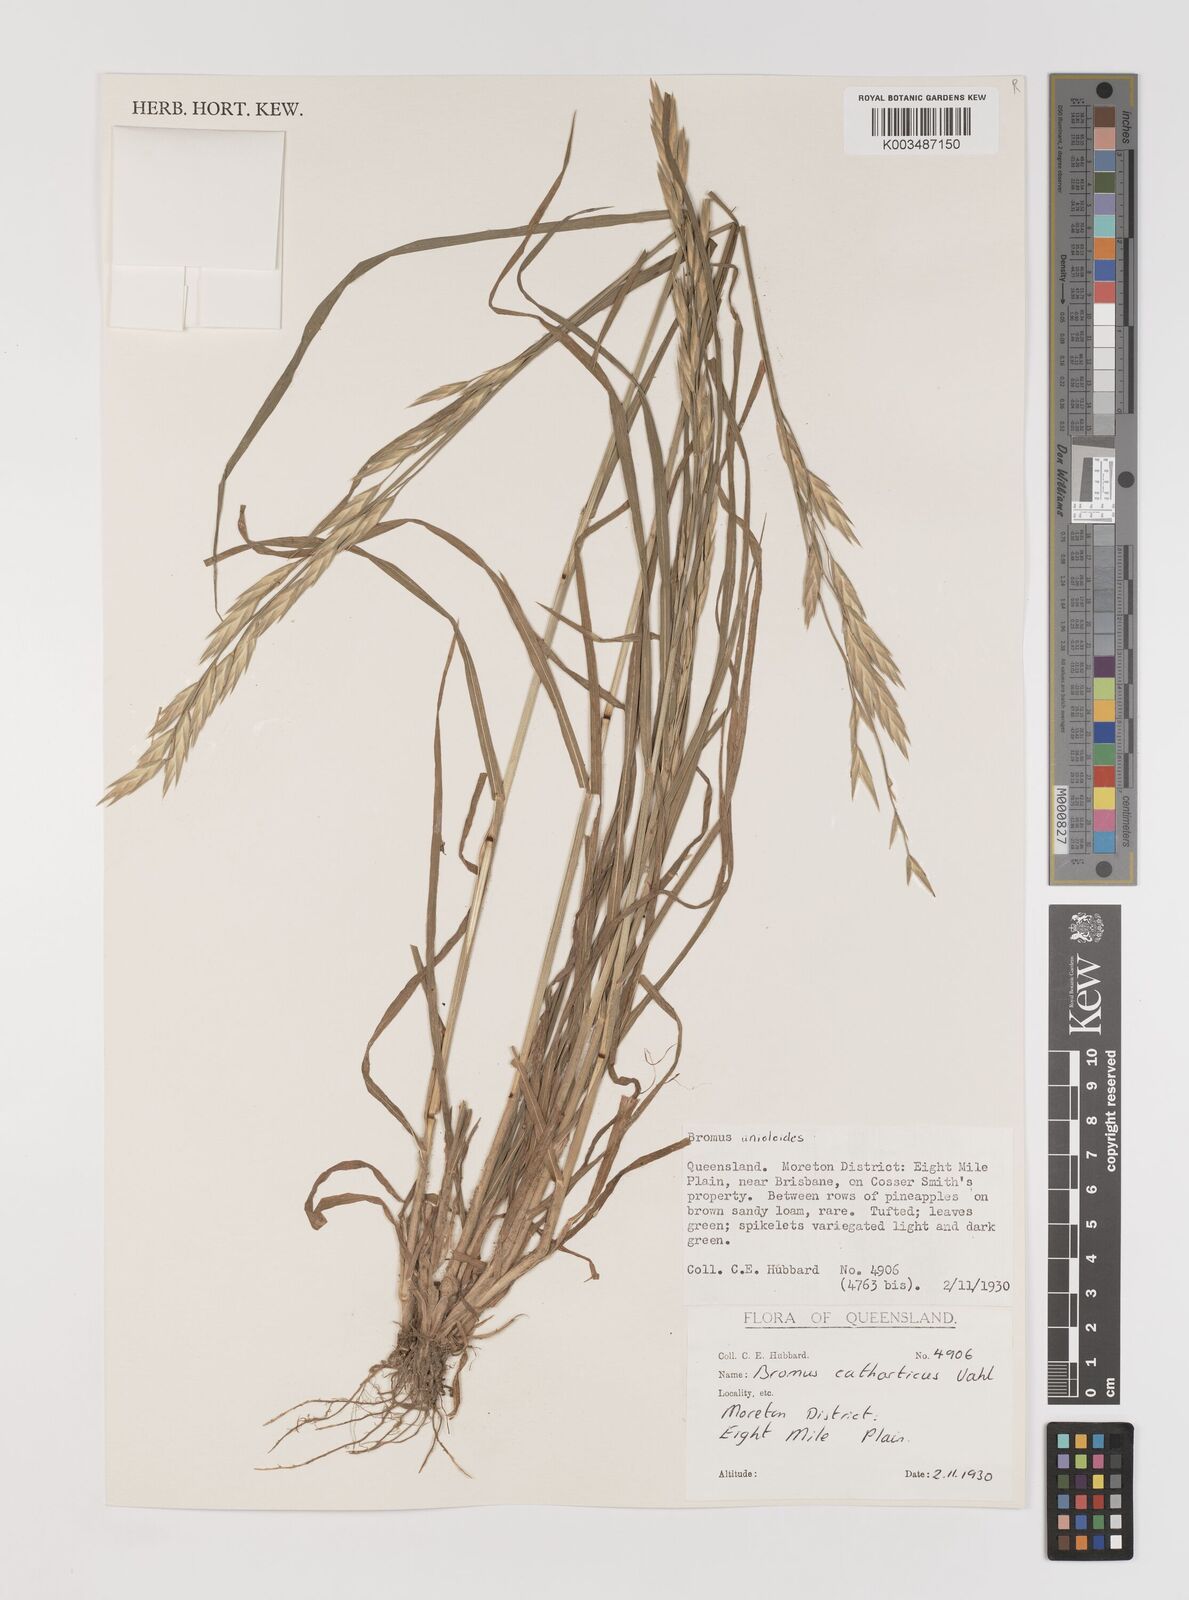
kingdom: Plantae
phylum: Tracheophyta
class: Liliopsida
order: Poales
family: Poaceae
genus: Bromus
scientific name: Bromus catharticus
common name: Rescuegrass
